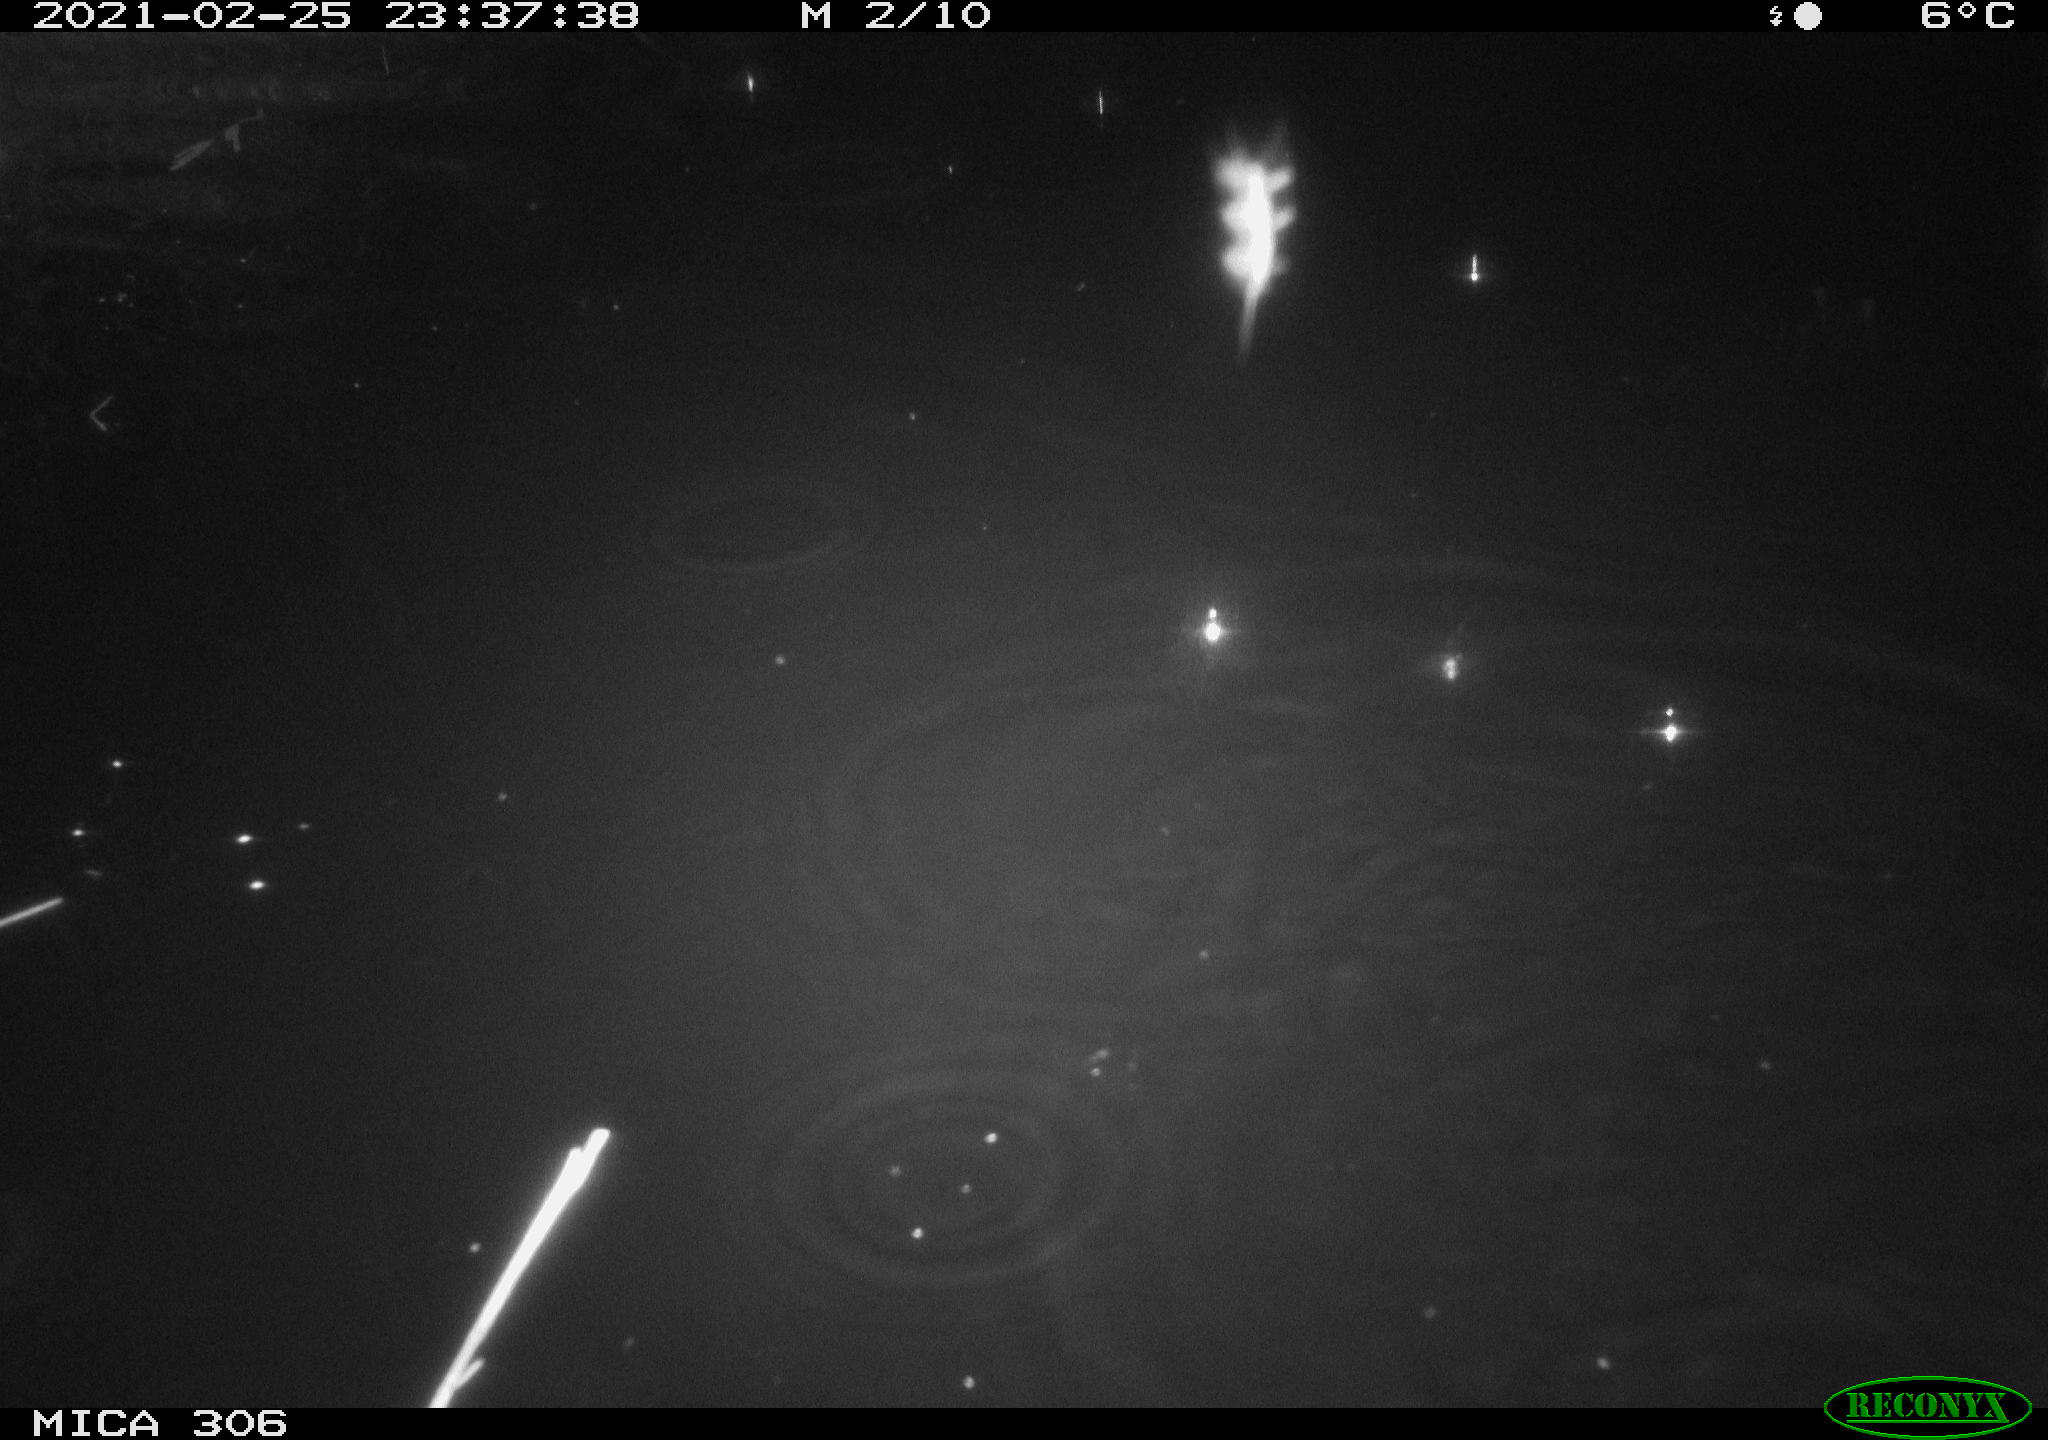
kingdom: Animalia
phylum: Chordata
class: Mammalia
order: Rodentia
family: Muridae
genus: Rattus
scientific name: Rattus norvegicus
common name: Brown rat
